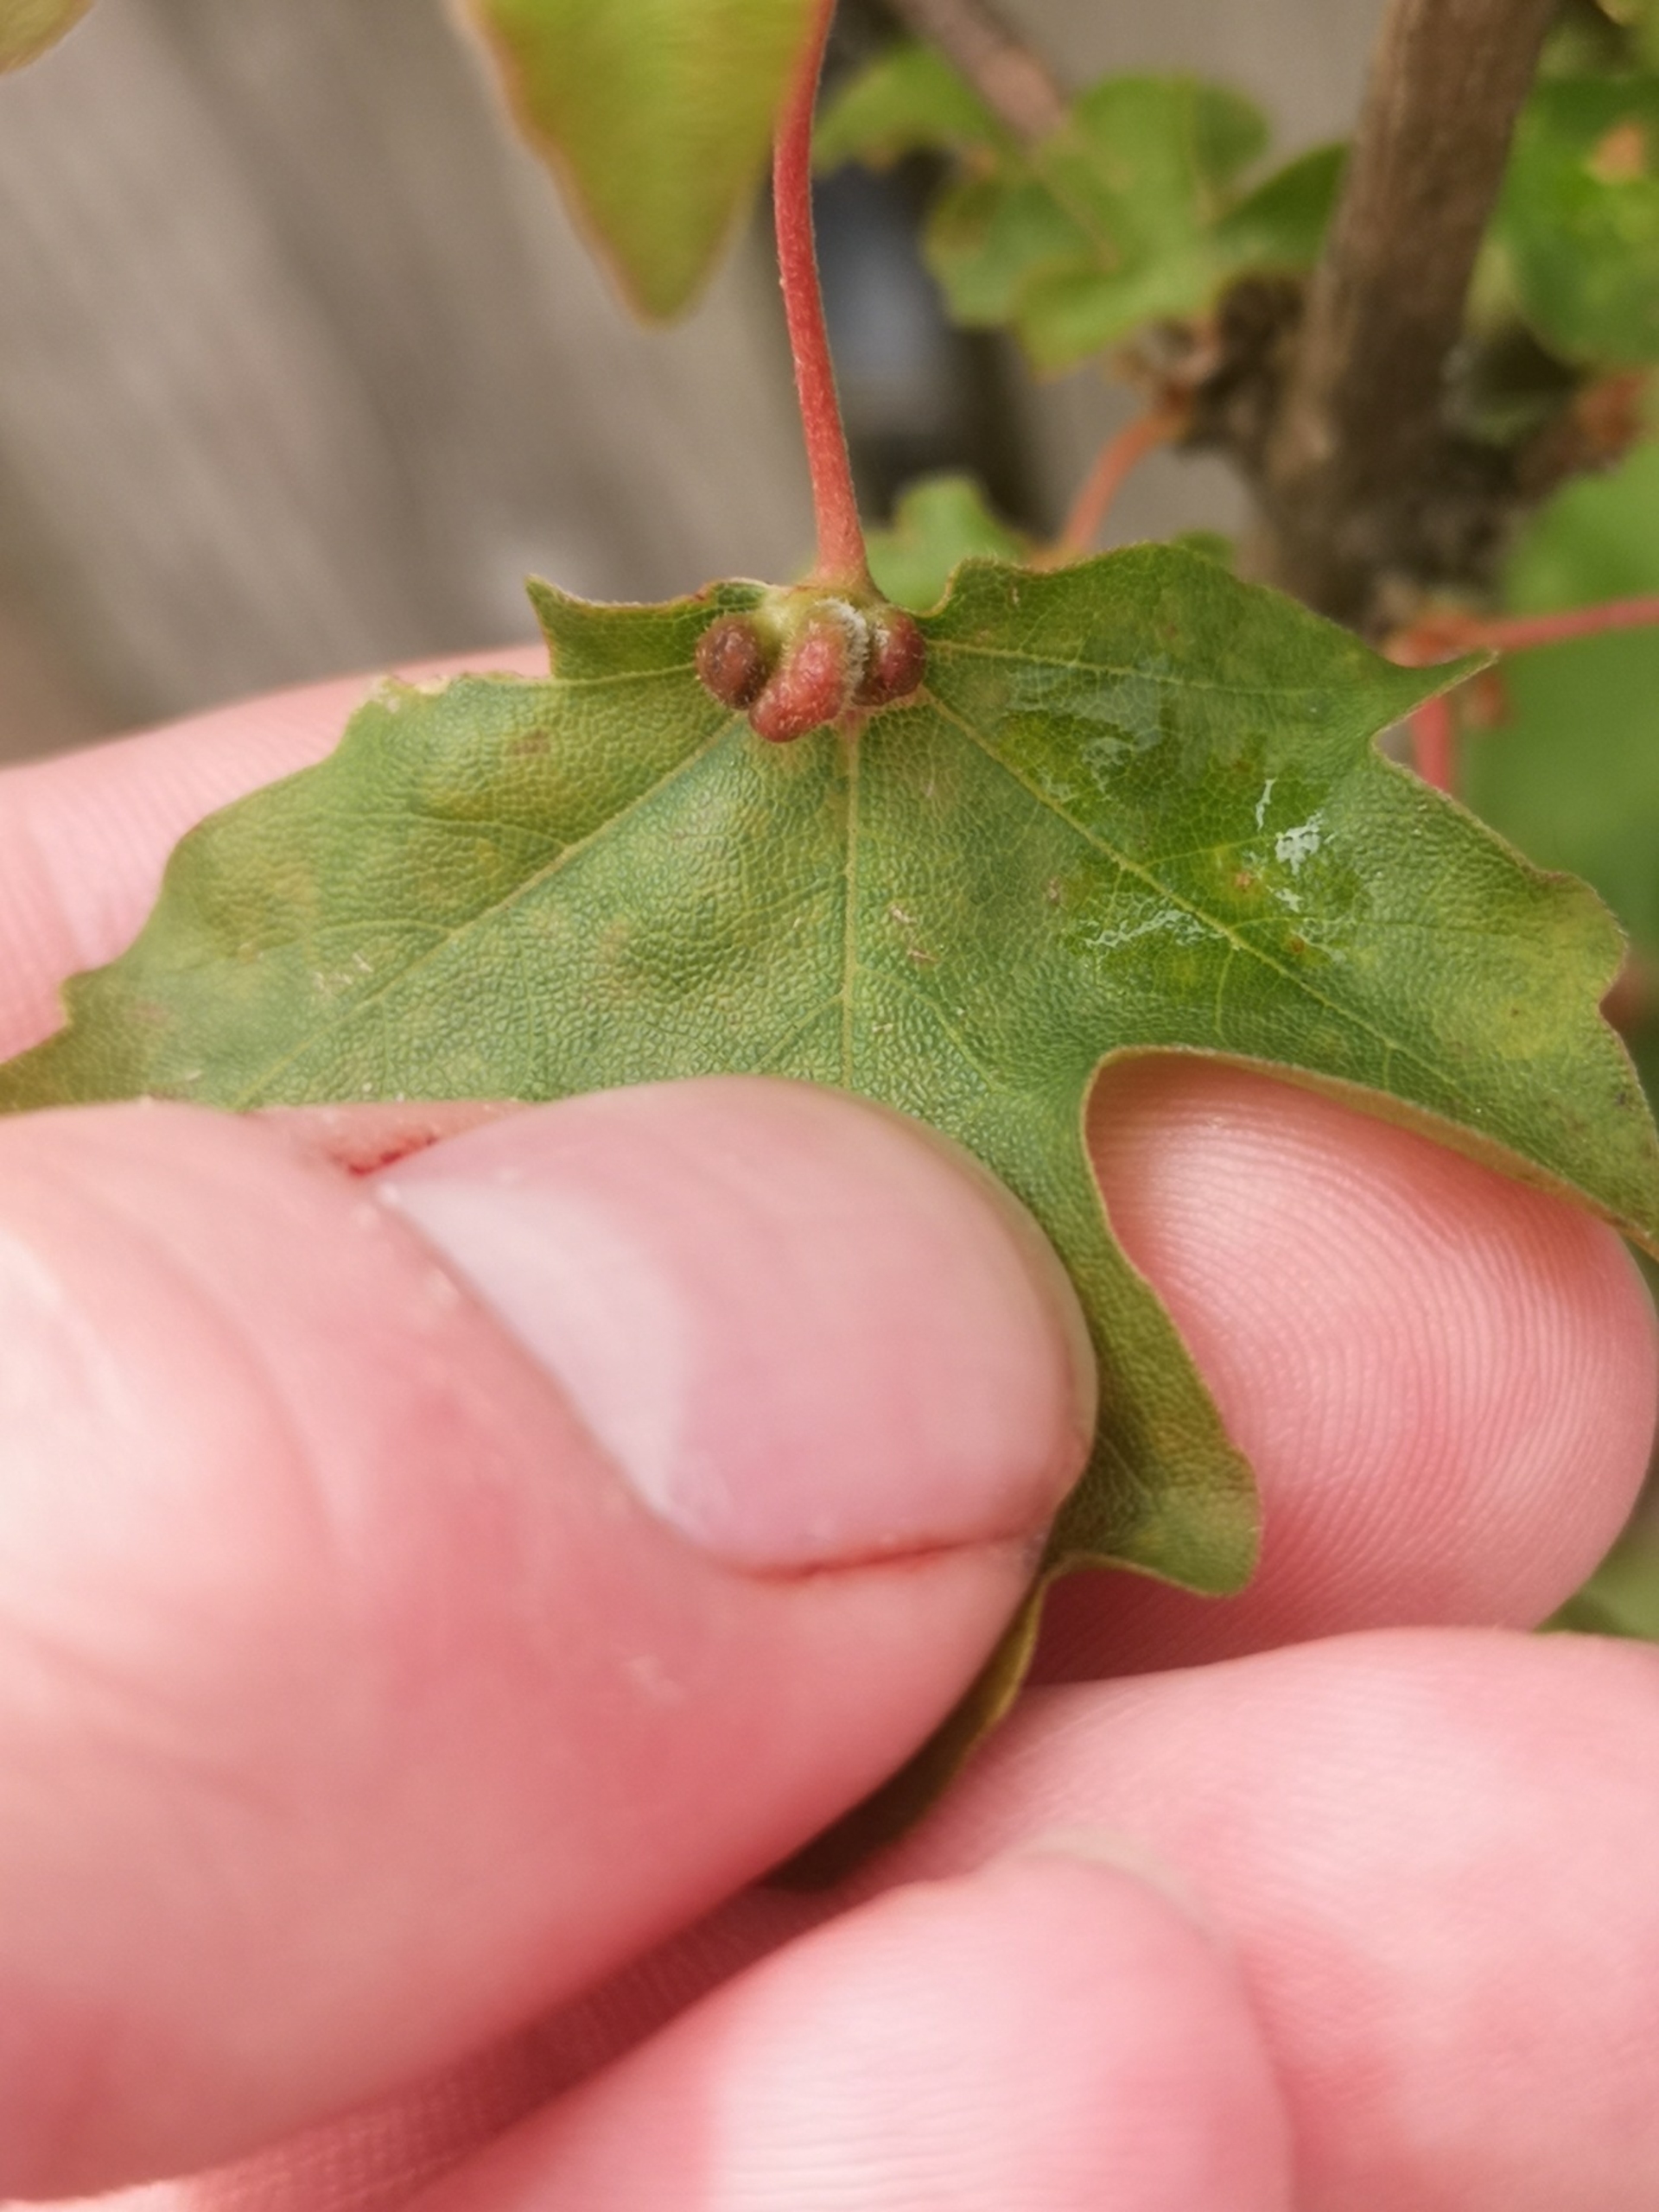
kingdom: Animalia
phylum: Arthropoda
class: Arachnida
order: Trombidiformes
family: Eriophyidae
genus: Aceria
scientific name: Aceria macrochelus
